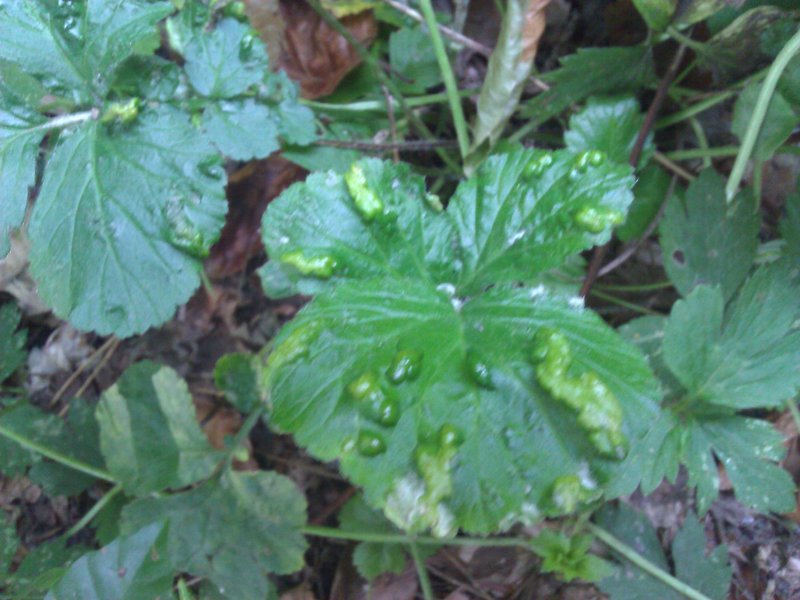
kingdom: Plantae
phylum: Tracheophyta
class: Magnoliopsida
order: Rosales
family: Rosaceae
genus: Geum
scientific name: Geum urbanum
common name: Wood avens
